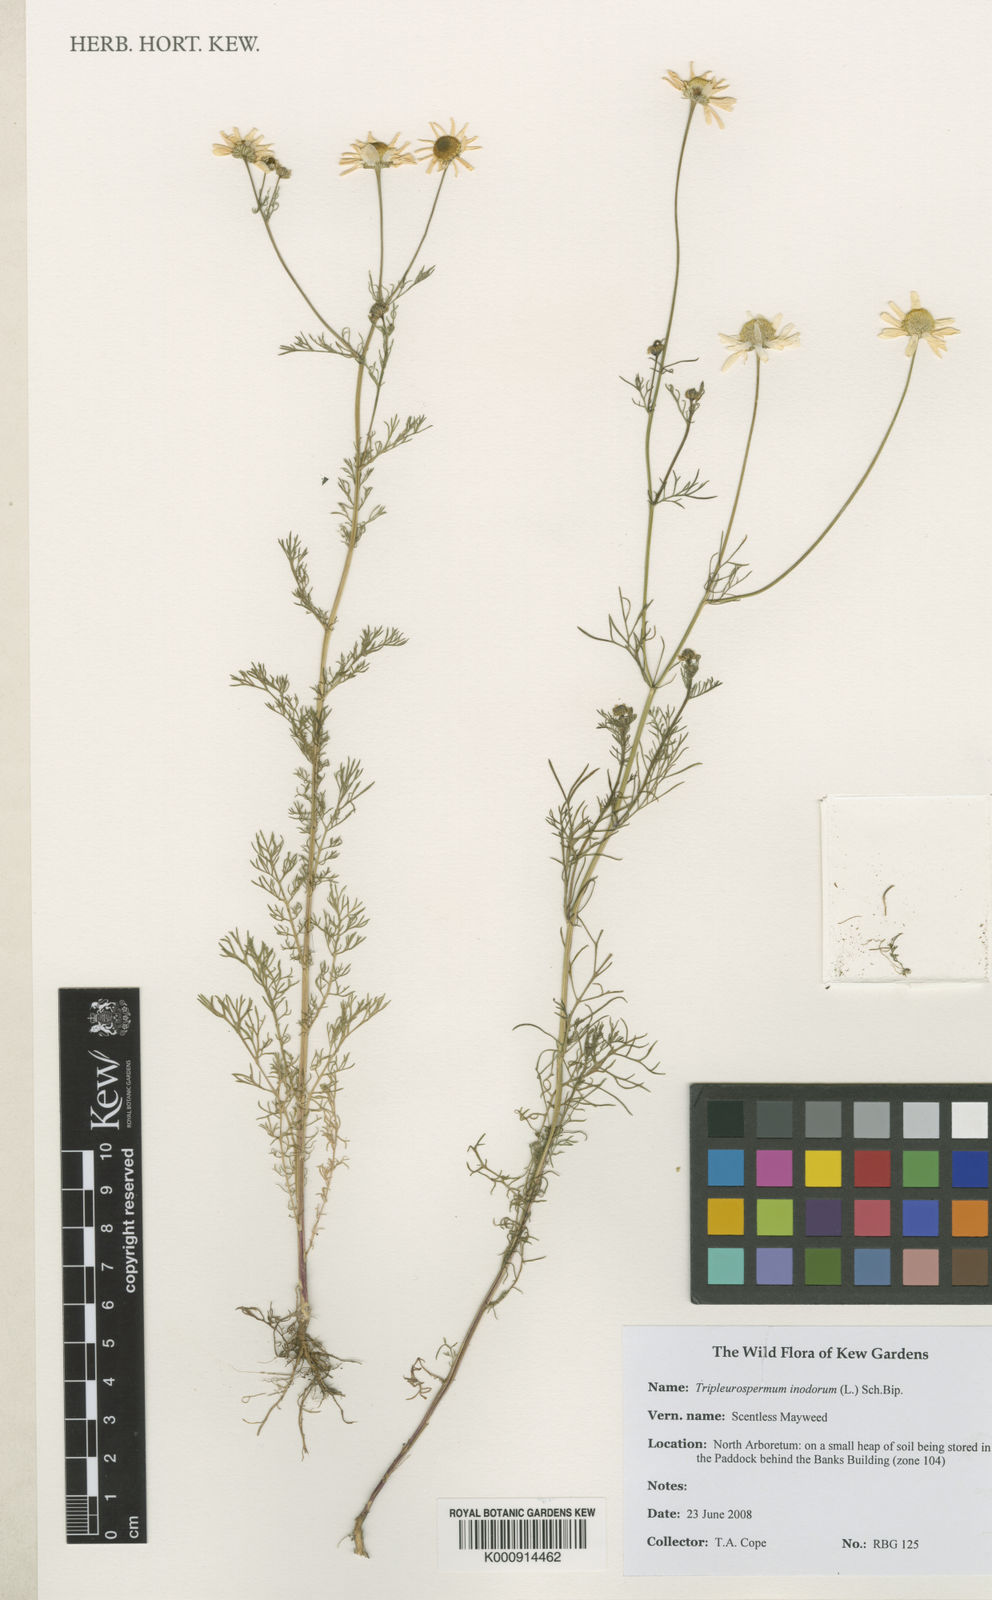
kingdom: Plantae
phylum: Tracheophyta
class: Magnoliopsida
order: Asterales
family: Asteraceae
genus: Tripleurospermum
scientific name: Tripleurospermum inodorum
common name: Scentless mayweed
